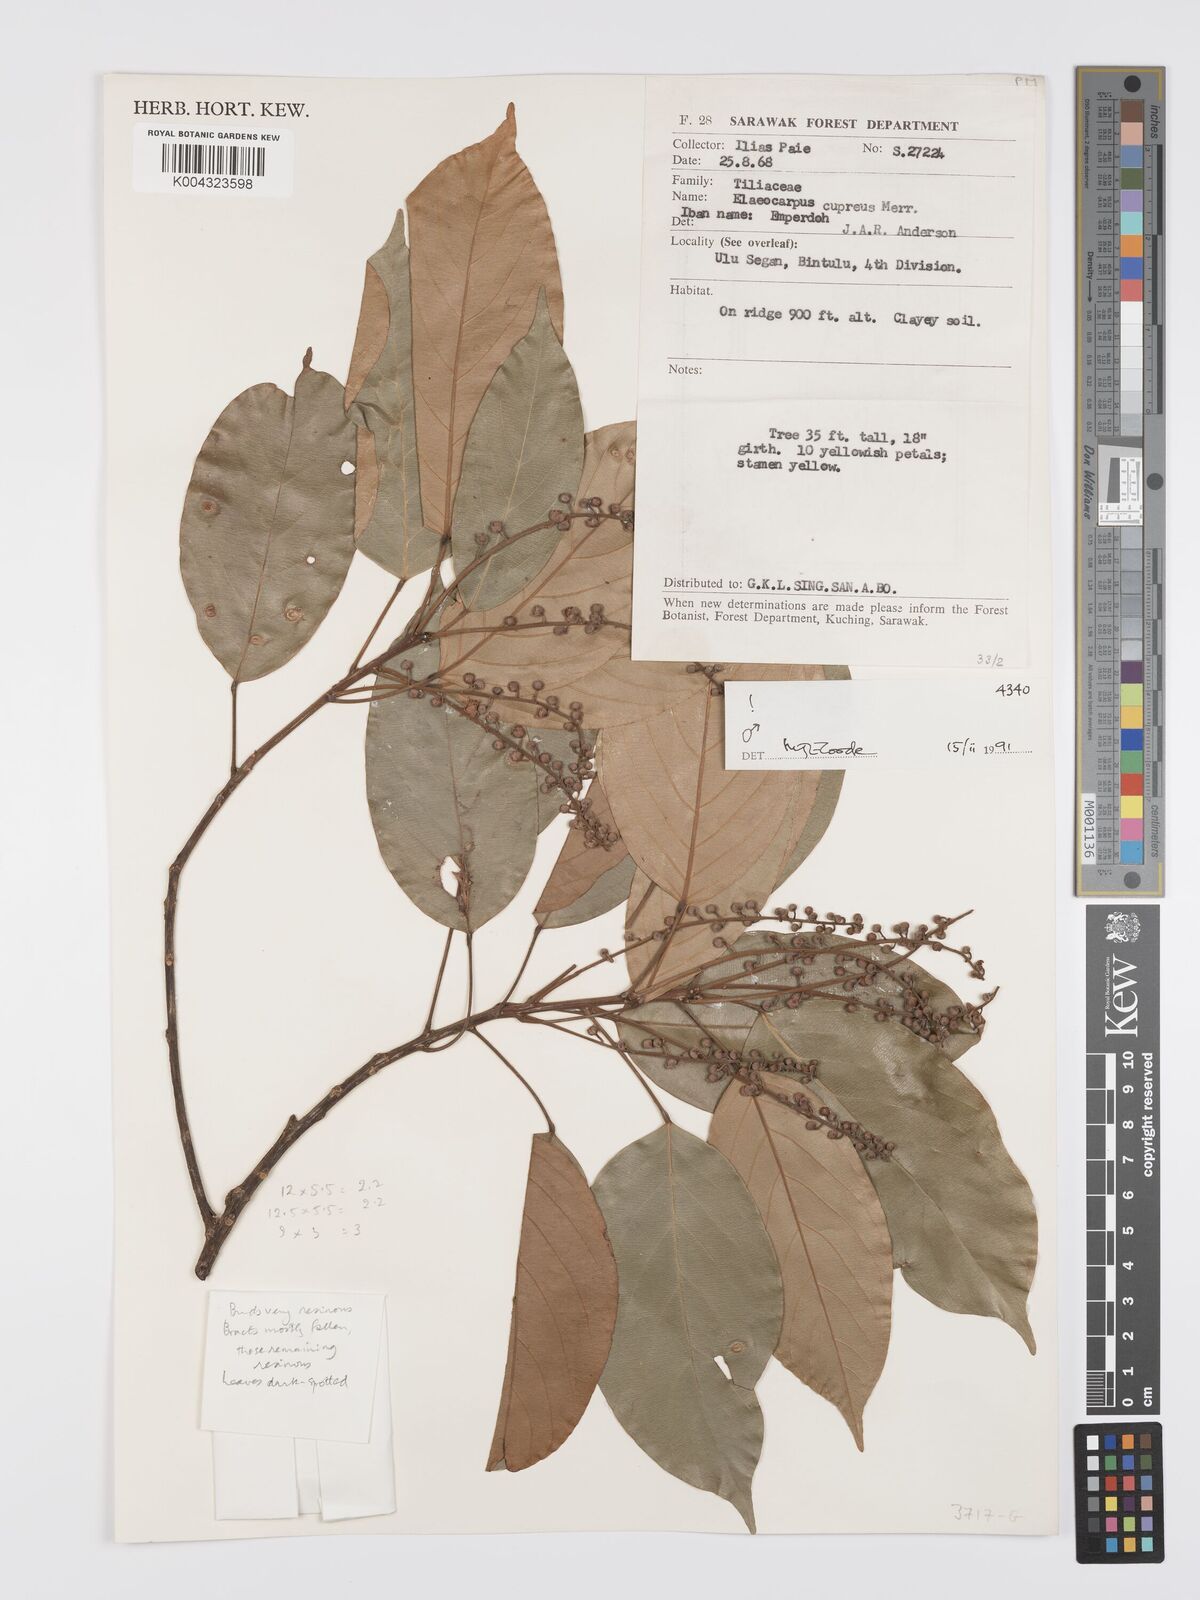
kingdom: Plantae
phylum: Tracheophyta
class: Magnoliopsida
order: Oxalidales
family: Elaeocarpaceae
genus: Elaeocarpus
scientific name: Elaeocarpus cupreus
